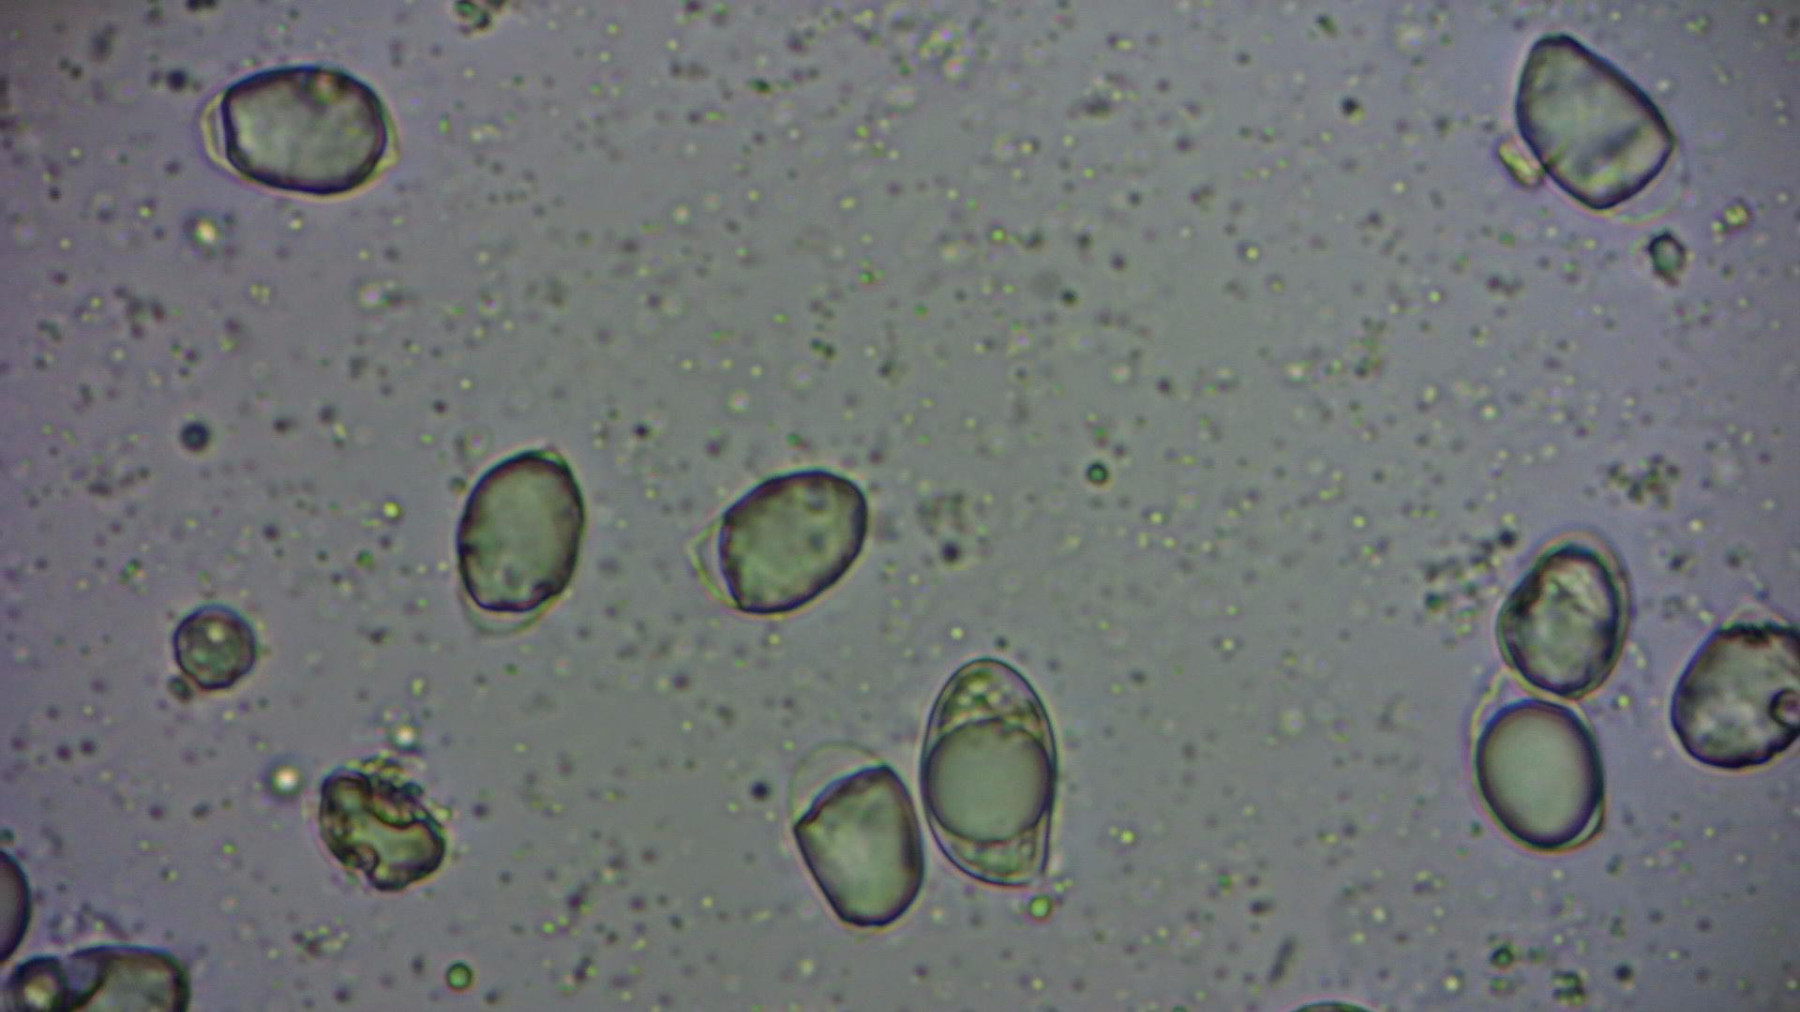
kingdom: Fungi
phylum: Basidiomycota
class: Agaricomycetes
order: Agaricales
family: Physalacriaceae
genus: Hymenopellis
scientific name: Hymenopellis radicata
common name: almindelig pælerodshat
